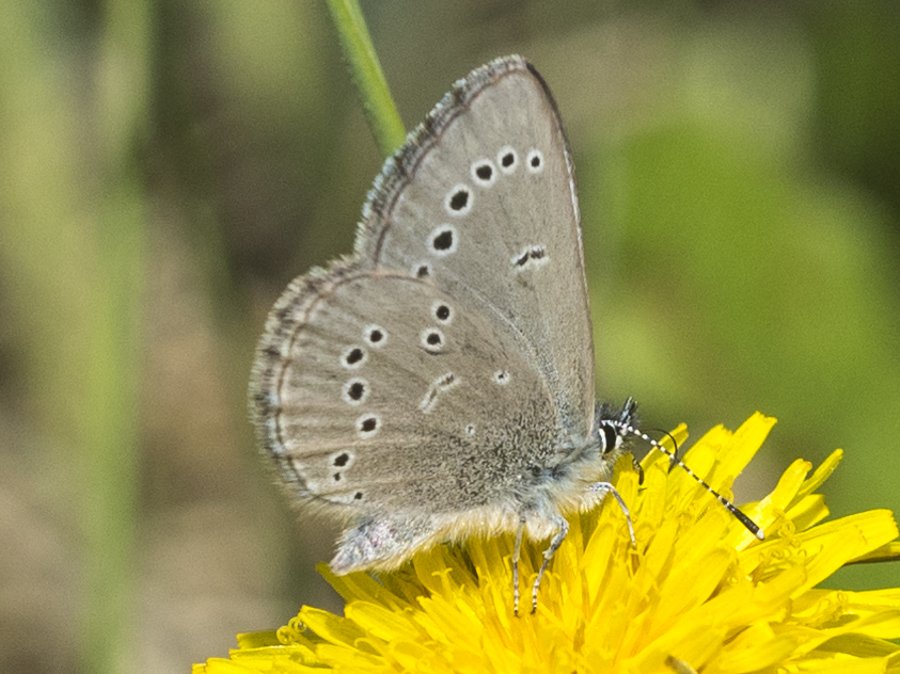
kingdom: Animalia
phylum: Arthropoda
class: Insecta
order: Lepidoptera
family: Lycaenidae
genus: Glaucopsyche
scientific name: Glaucopsyche lygdamus
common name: Silvery Blue
